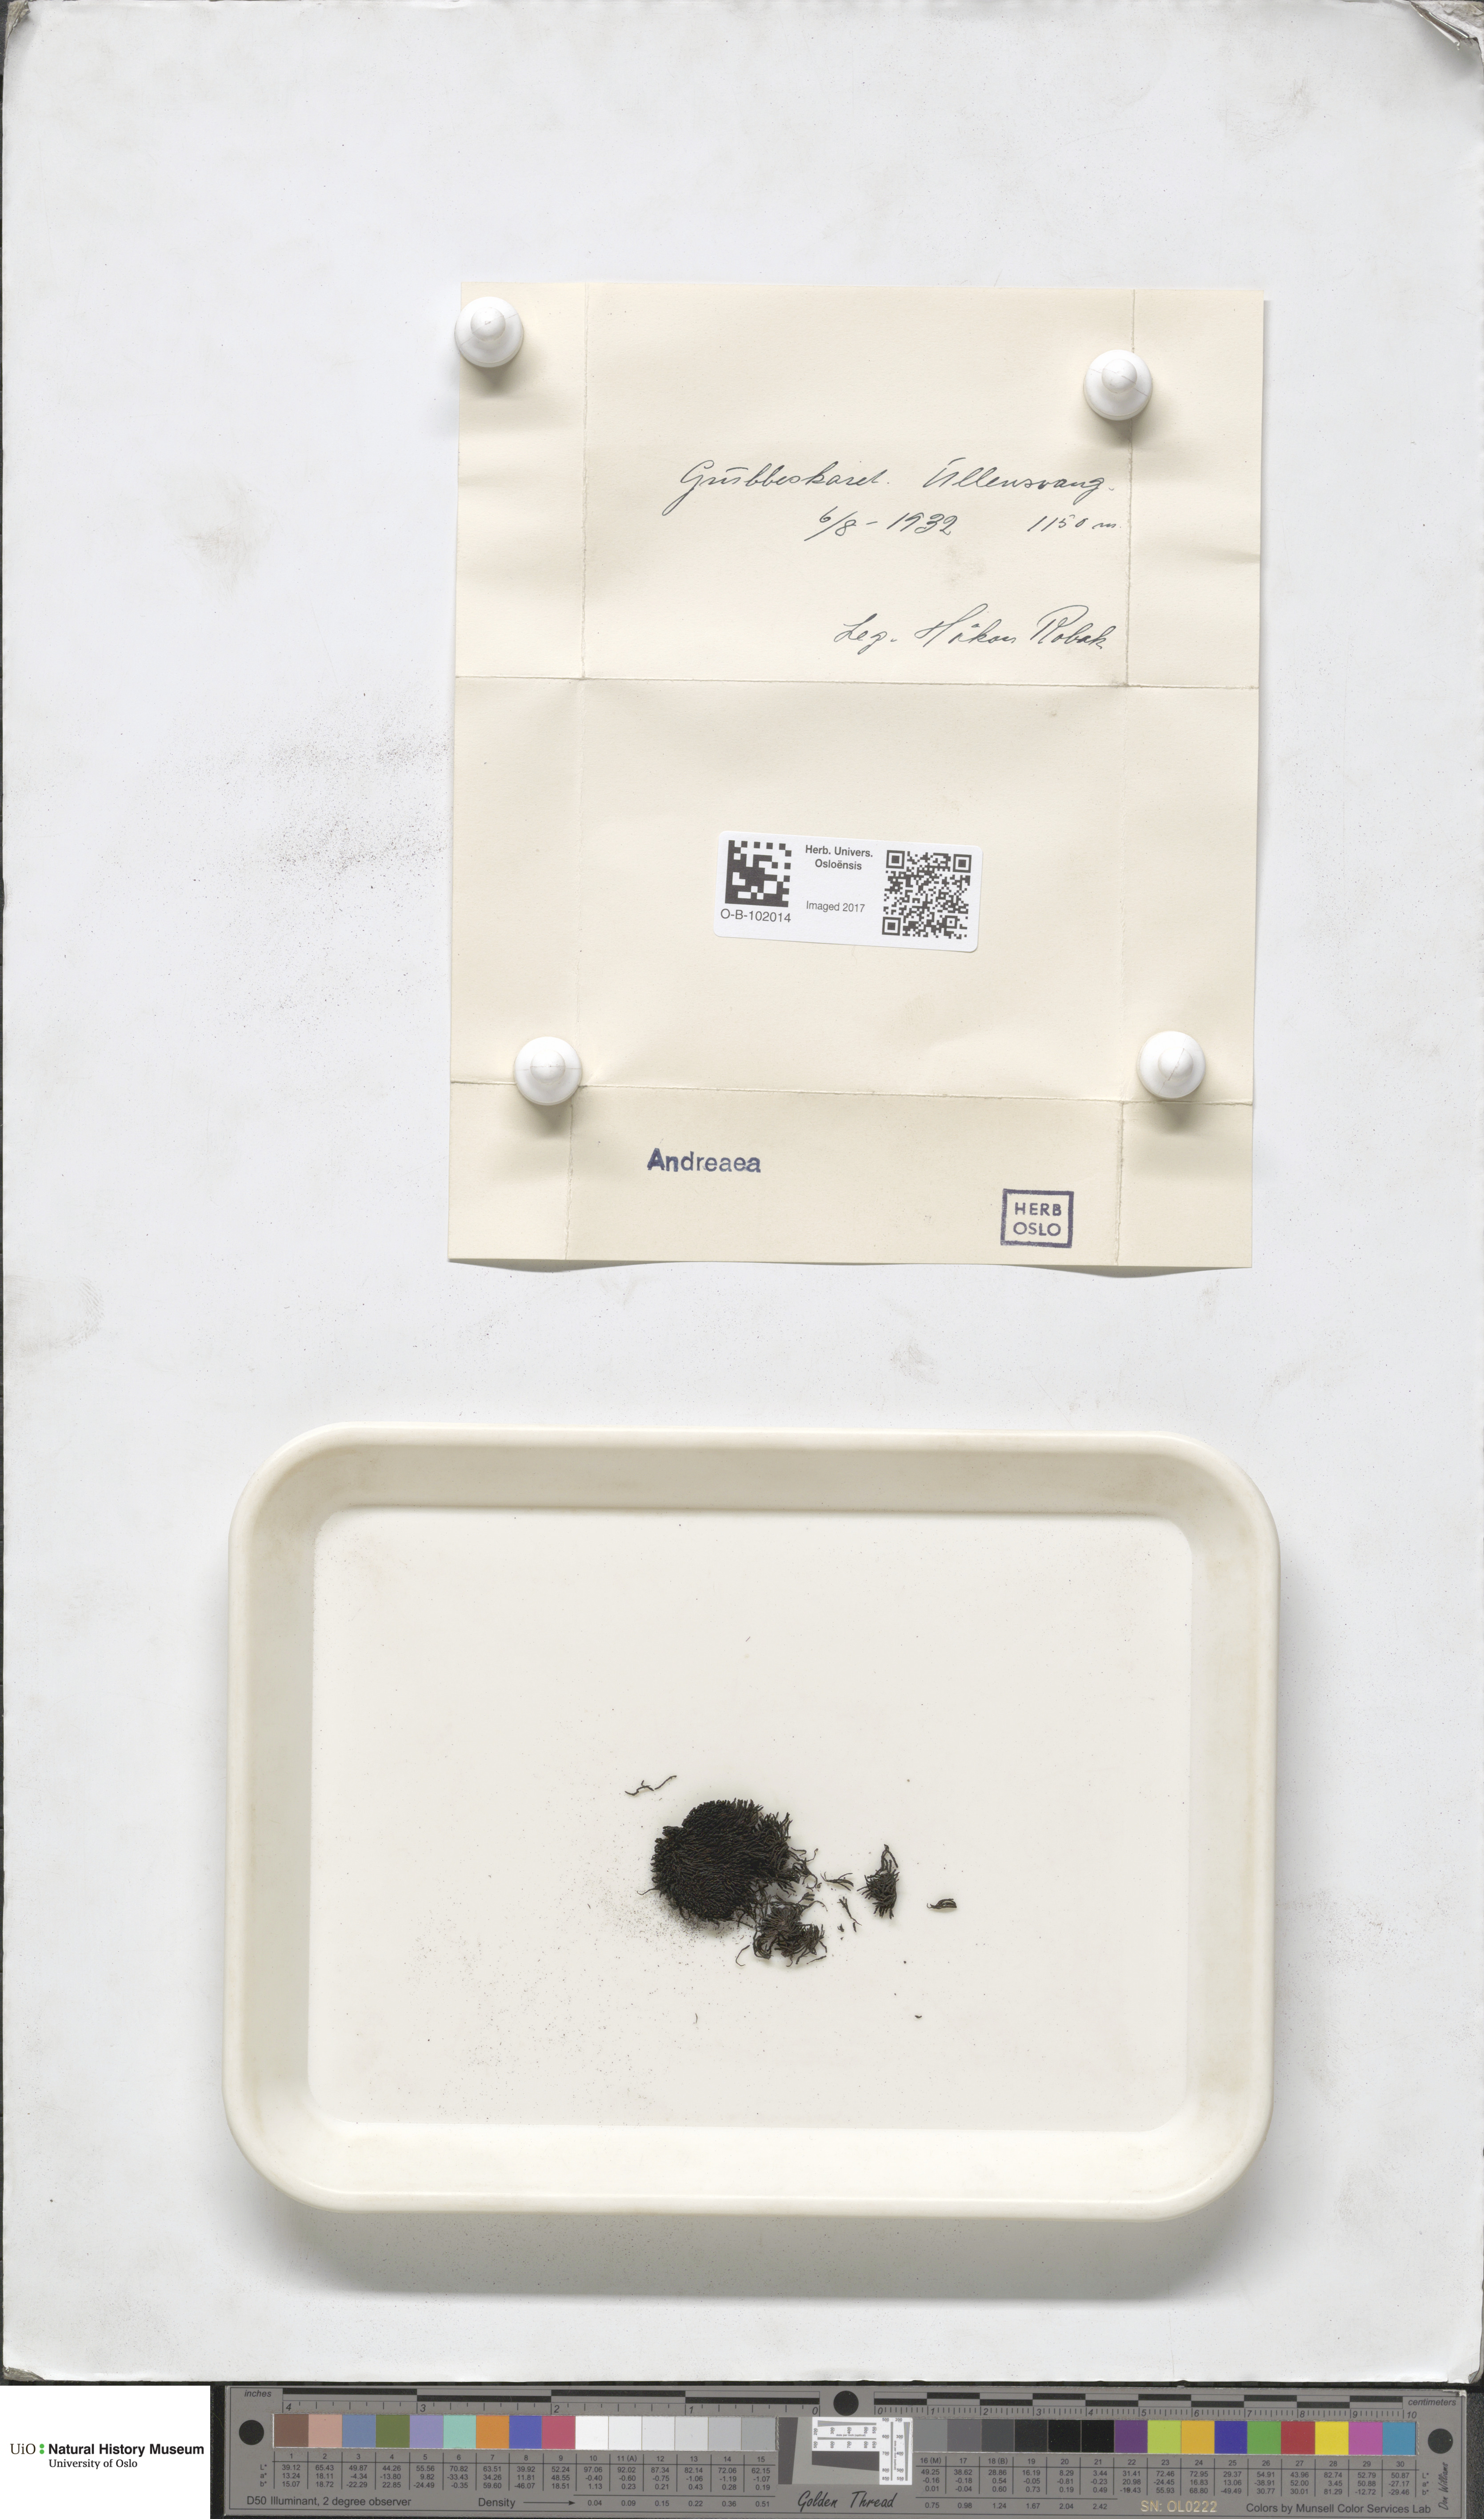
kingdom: Plantae
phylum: Bryophyta
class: Andreaeopsida
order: Andreaeales
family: Andreaeaceae
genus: Andreaea
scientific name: Andreaea
